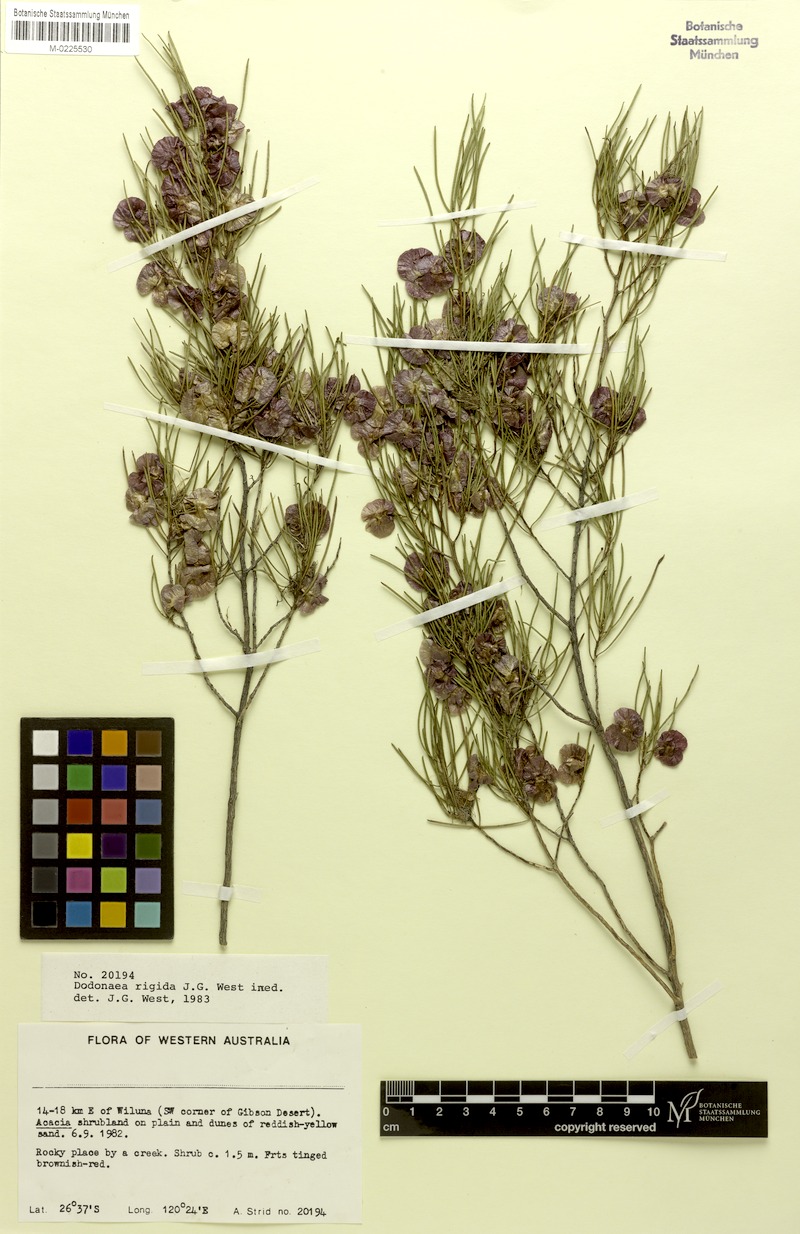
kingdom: Plantae
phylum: Tracheophyta
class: Magnoliopsida
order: Sapindales
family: Sapindaceae
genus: Dodonaea
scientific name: Dodonaea rigida
